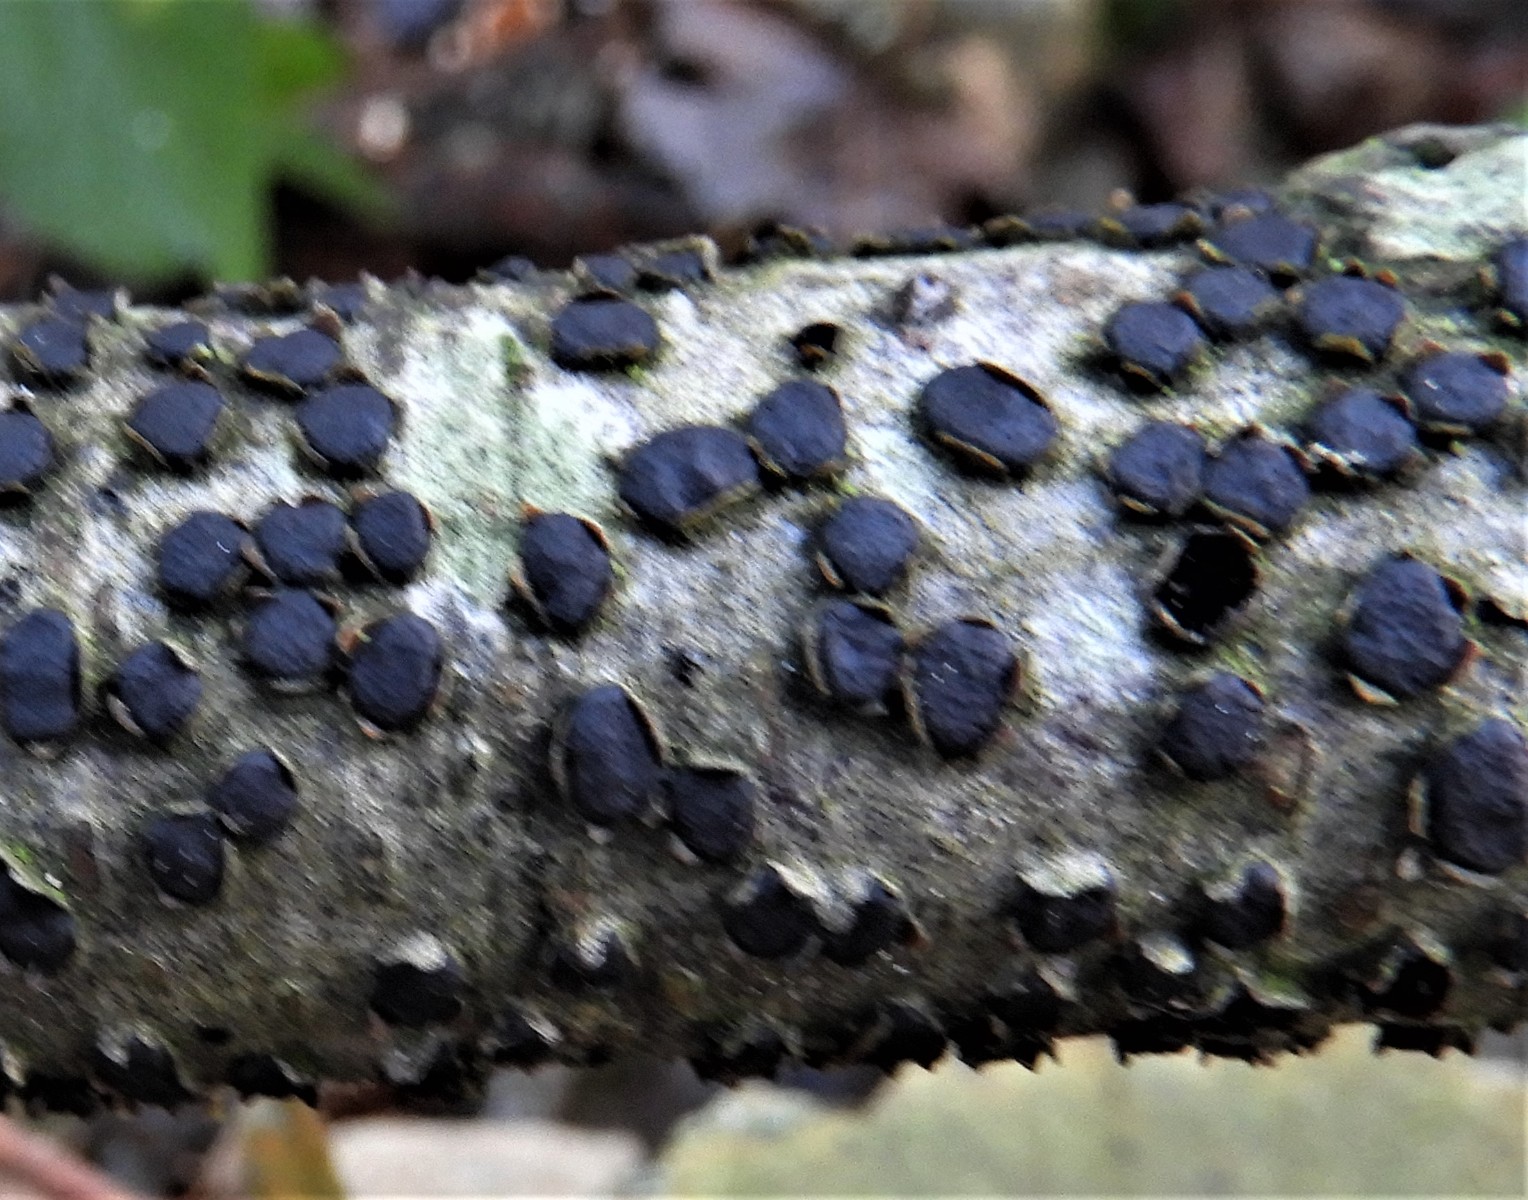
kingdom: Fungi
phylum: Ascomycota
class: Sordariomycetes
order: Xylariales
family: Diatrypaceae
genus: Diatrype
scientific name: Diatrype disciformis
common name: kant-kulskorpe
